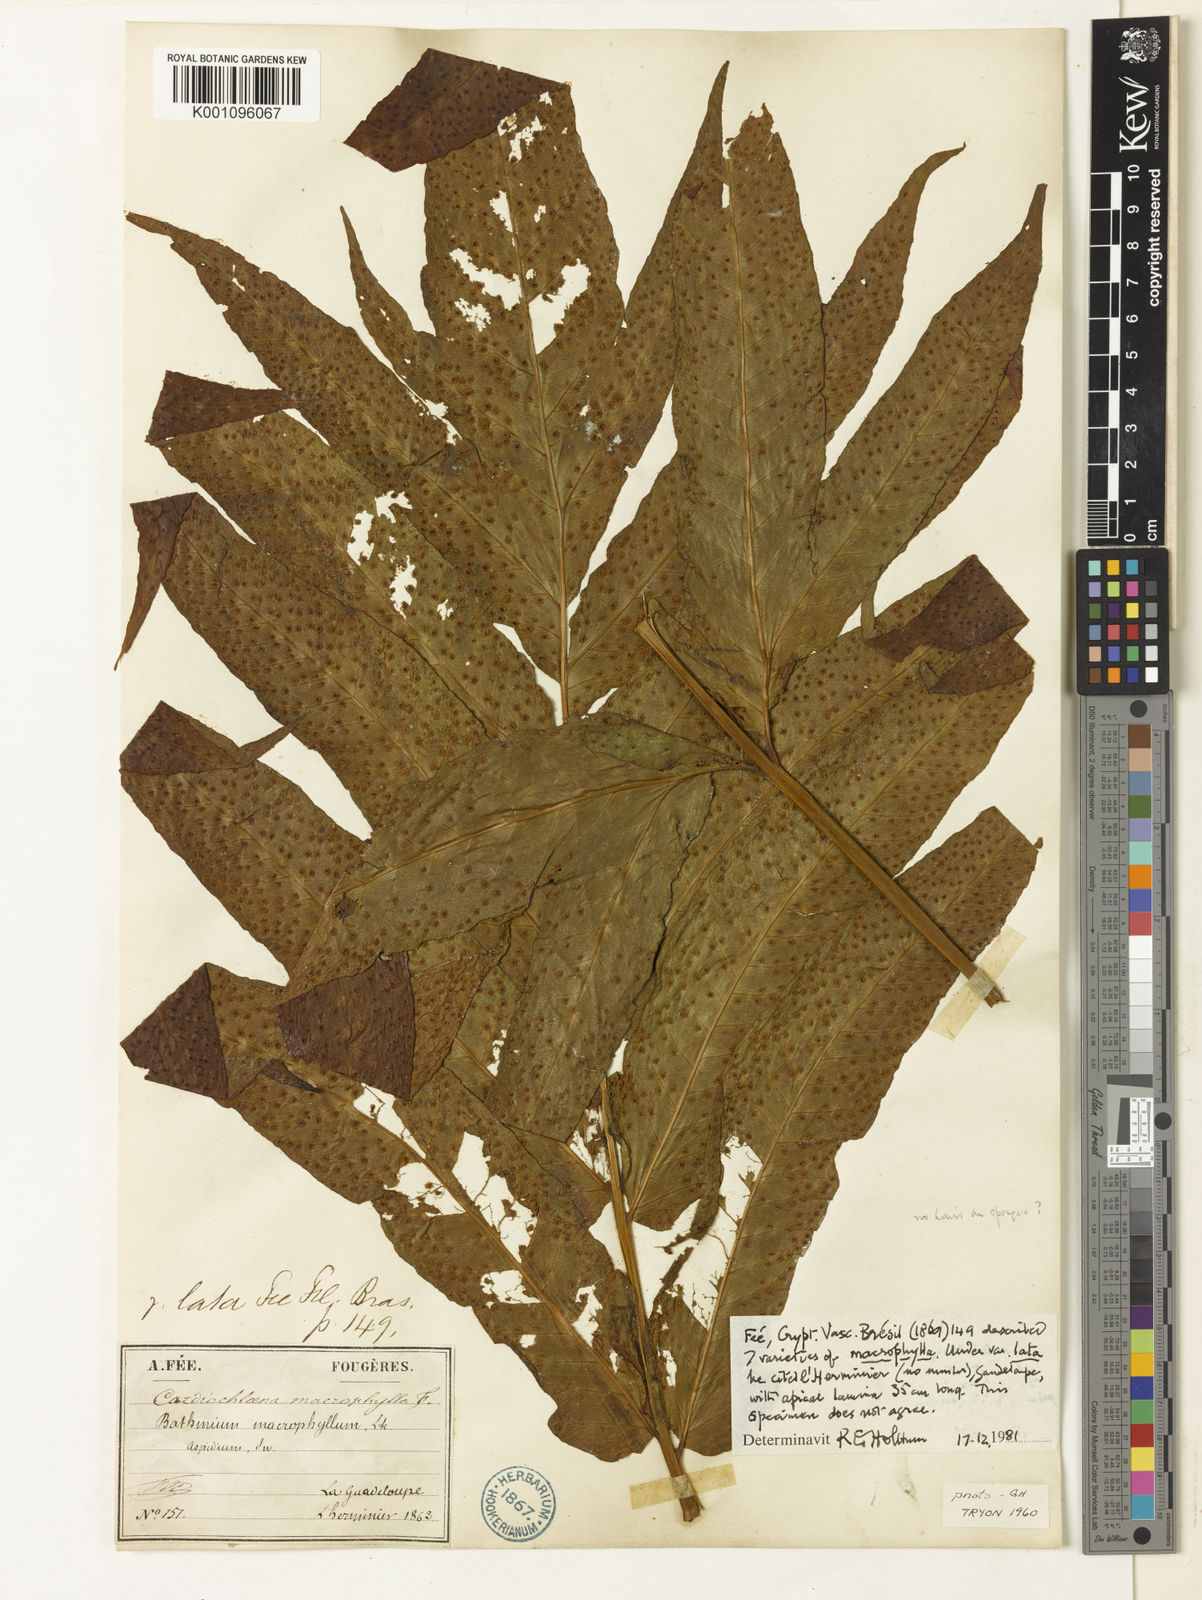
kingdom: Plantae
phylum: Tracheophyta
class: Polypodiopsida
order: Polypodiales
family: Tectariaceae
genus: Tectaria
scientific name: Tectaria incisa
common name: Incised halberd fern
